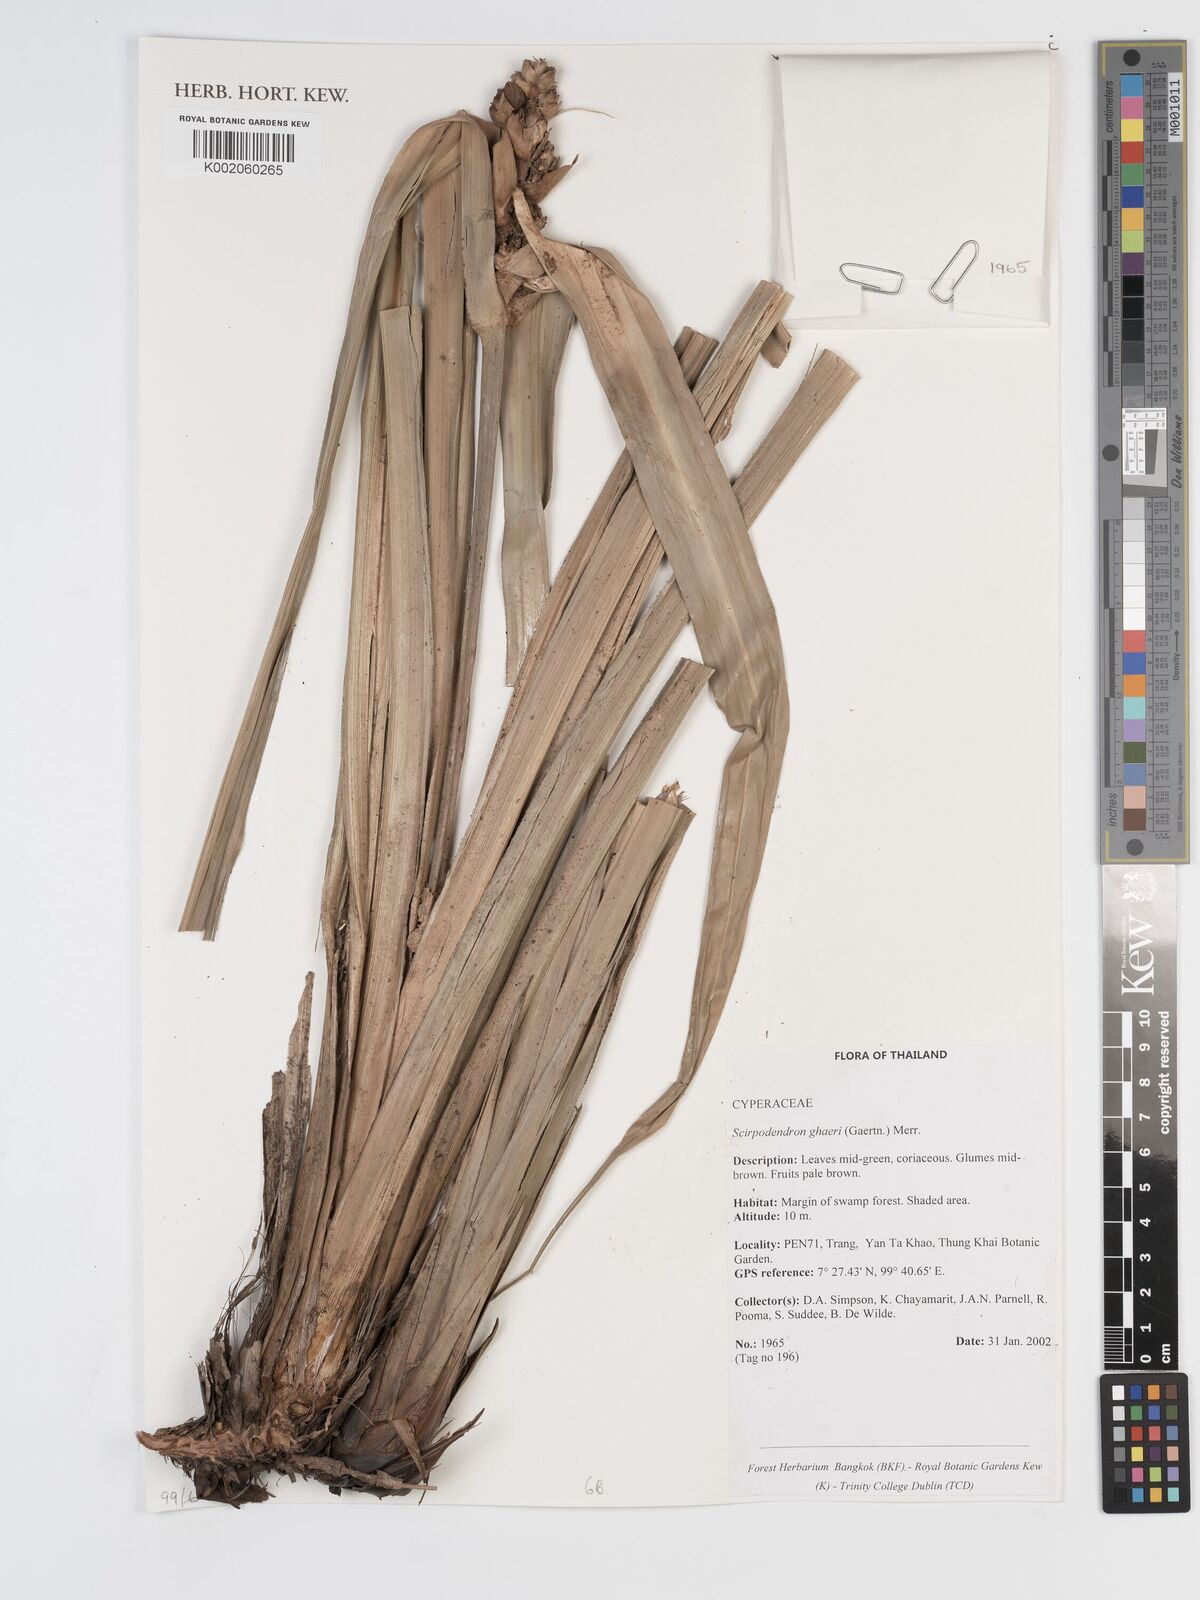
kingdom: Plantae
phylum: Tracheophyta
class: Liliopsida
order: Poales
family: Cyperaceae
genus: Scirpodendron
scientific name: Scirpodendron ghaeri
